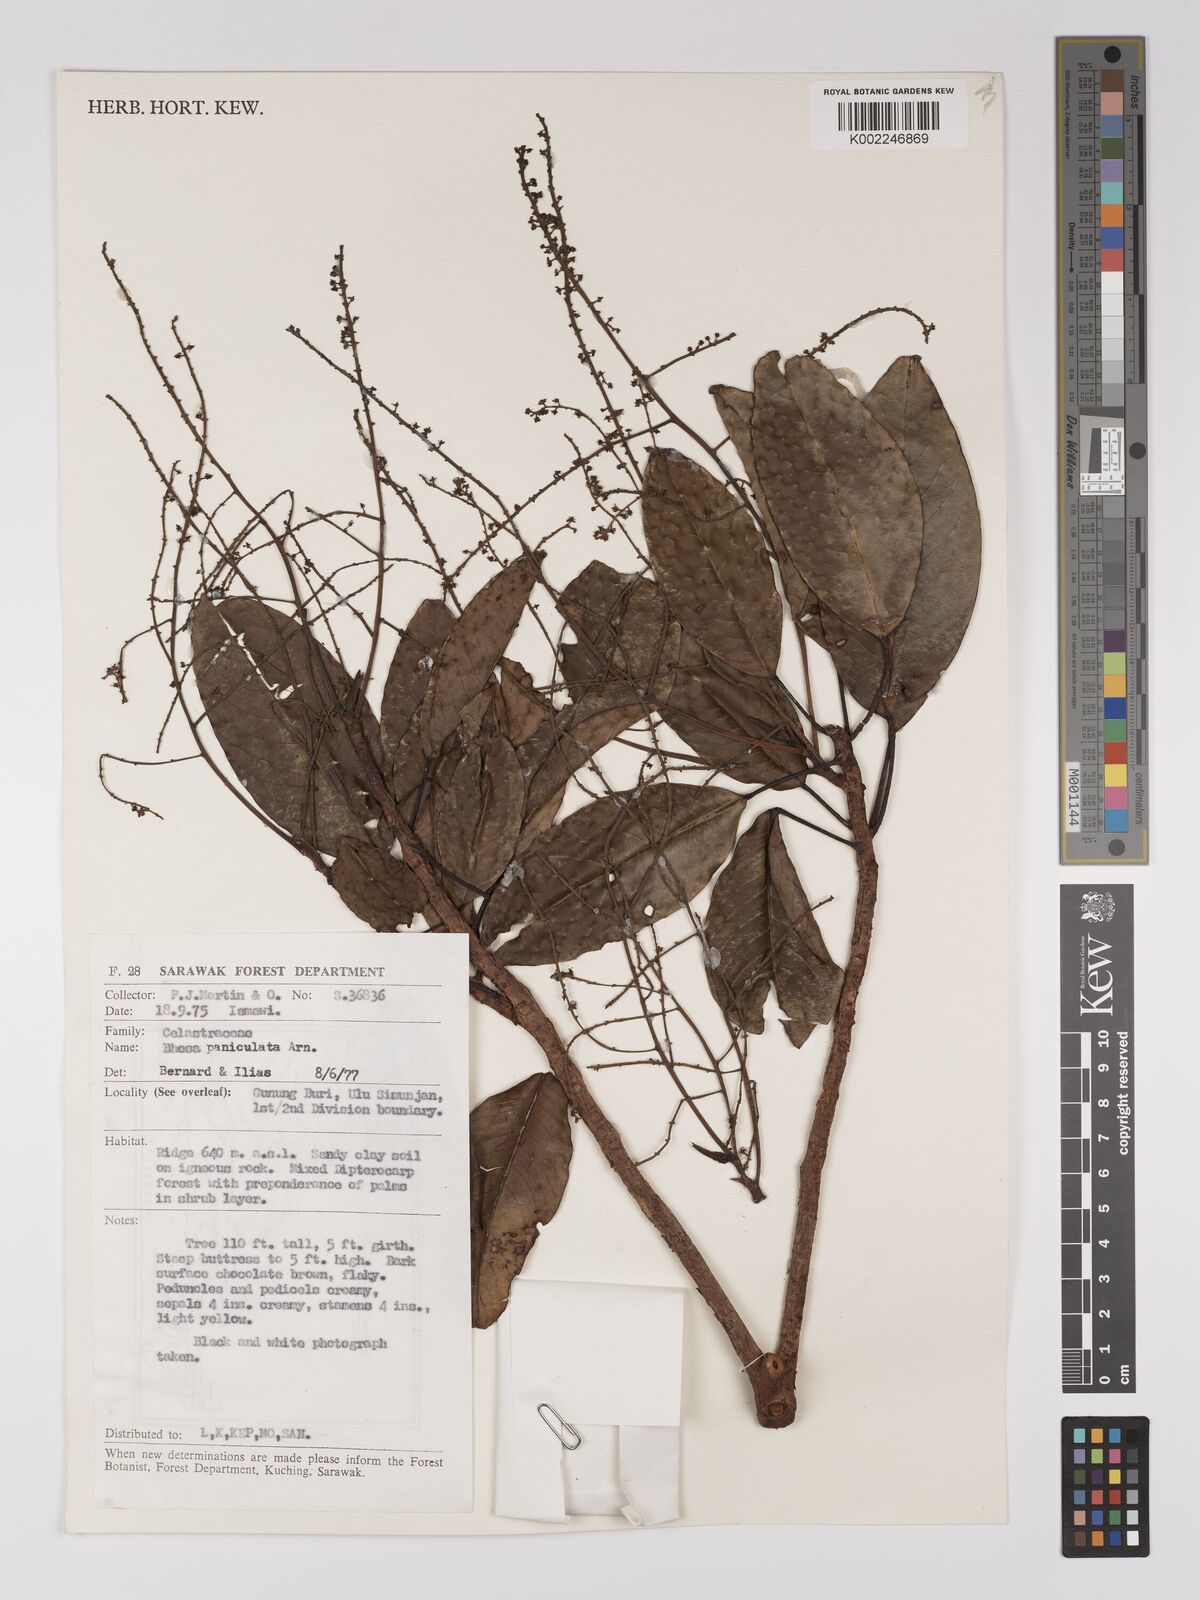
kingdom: Plantae
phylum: Tracheophyta
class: Magnoliopsida
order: Malpighiales
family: Centroplacaceae
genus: Bhesa
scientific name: Bhesa paniculata
